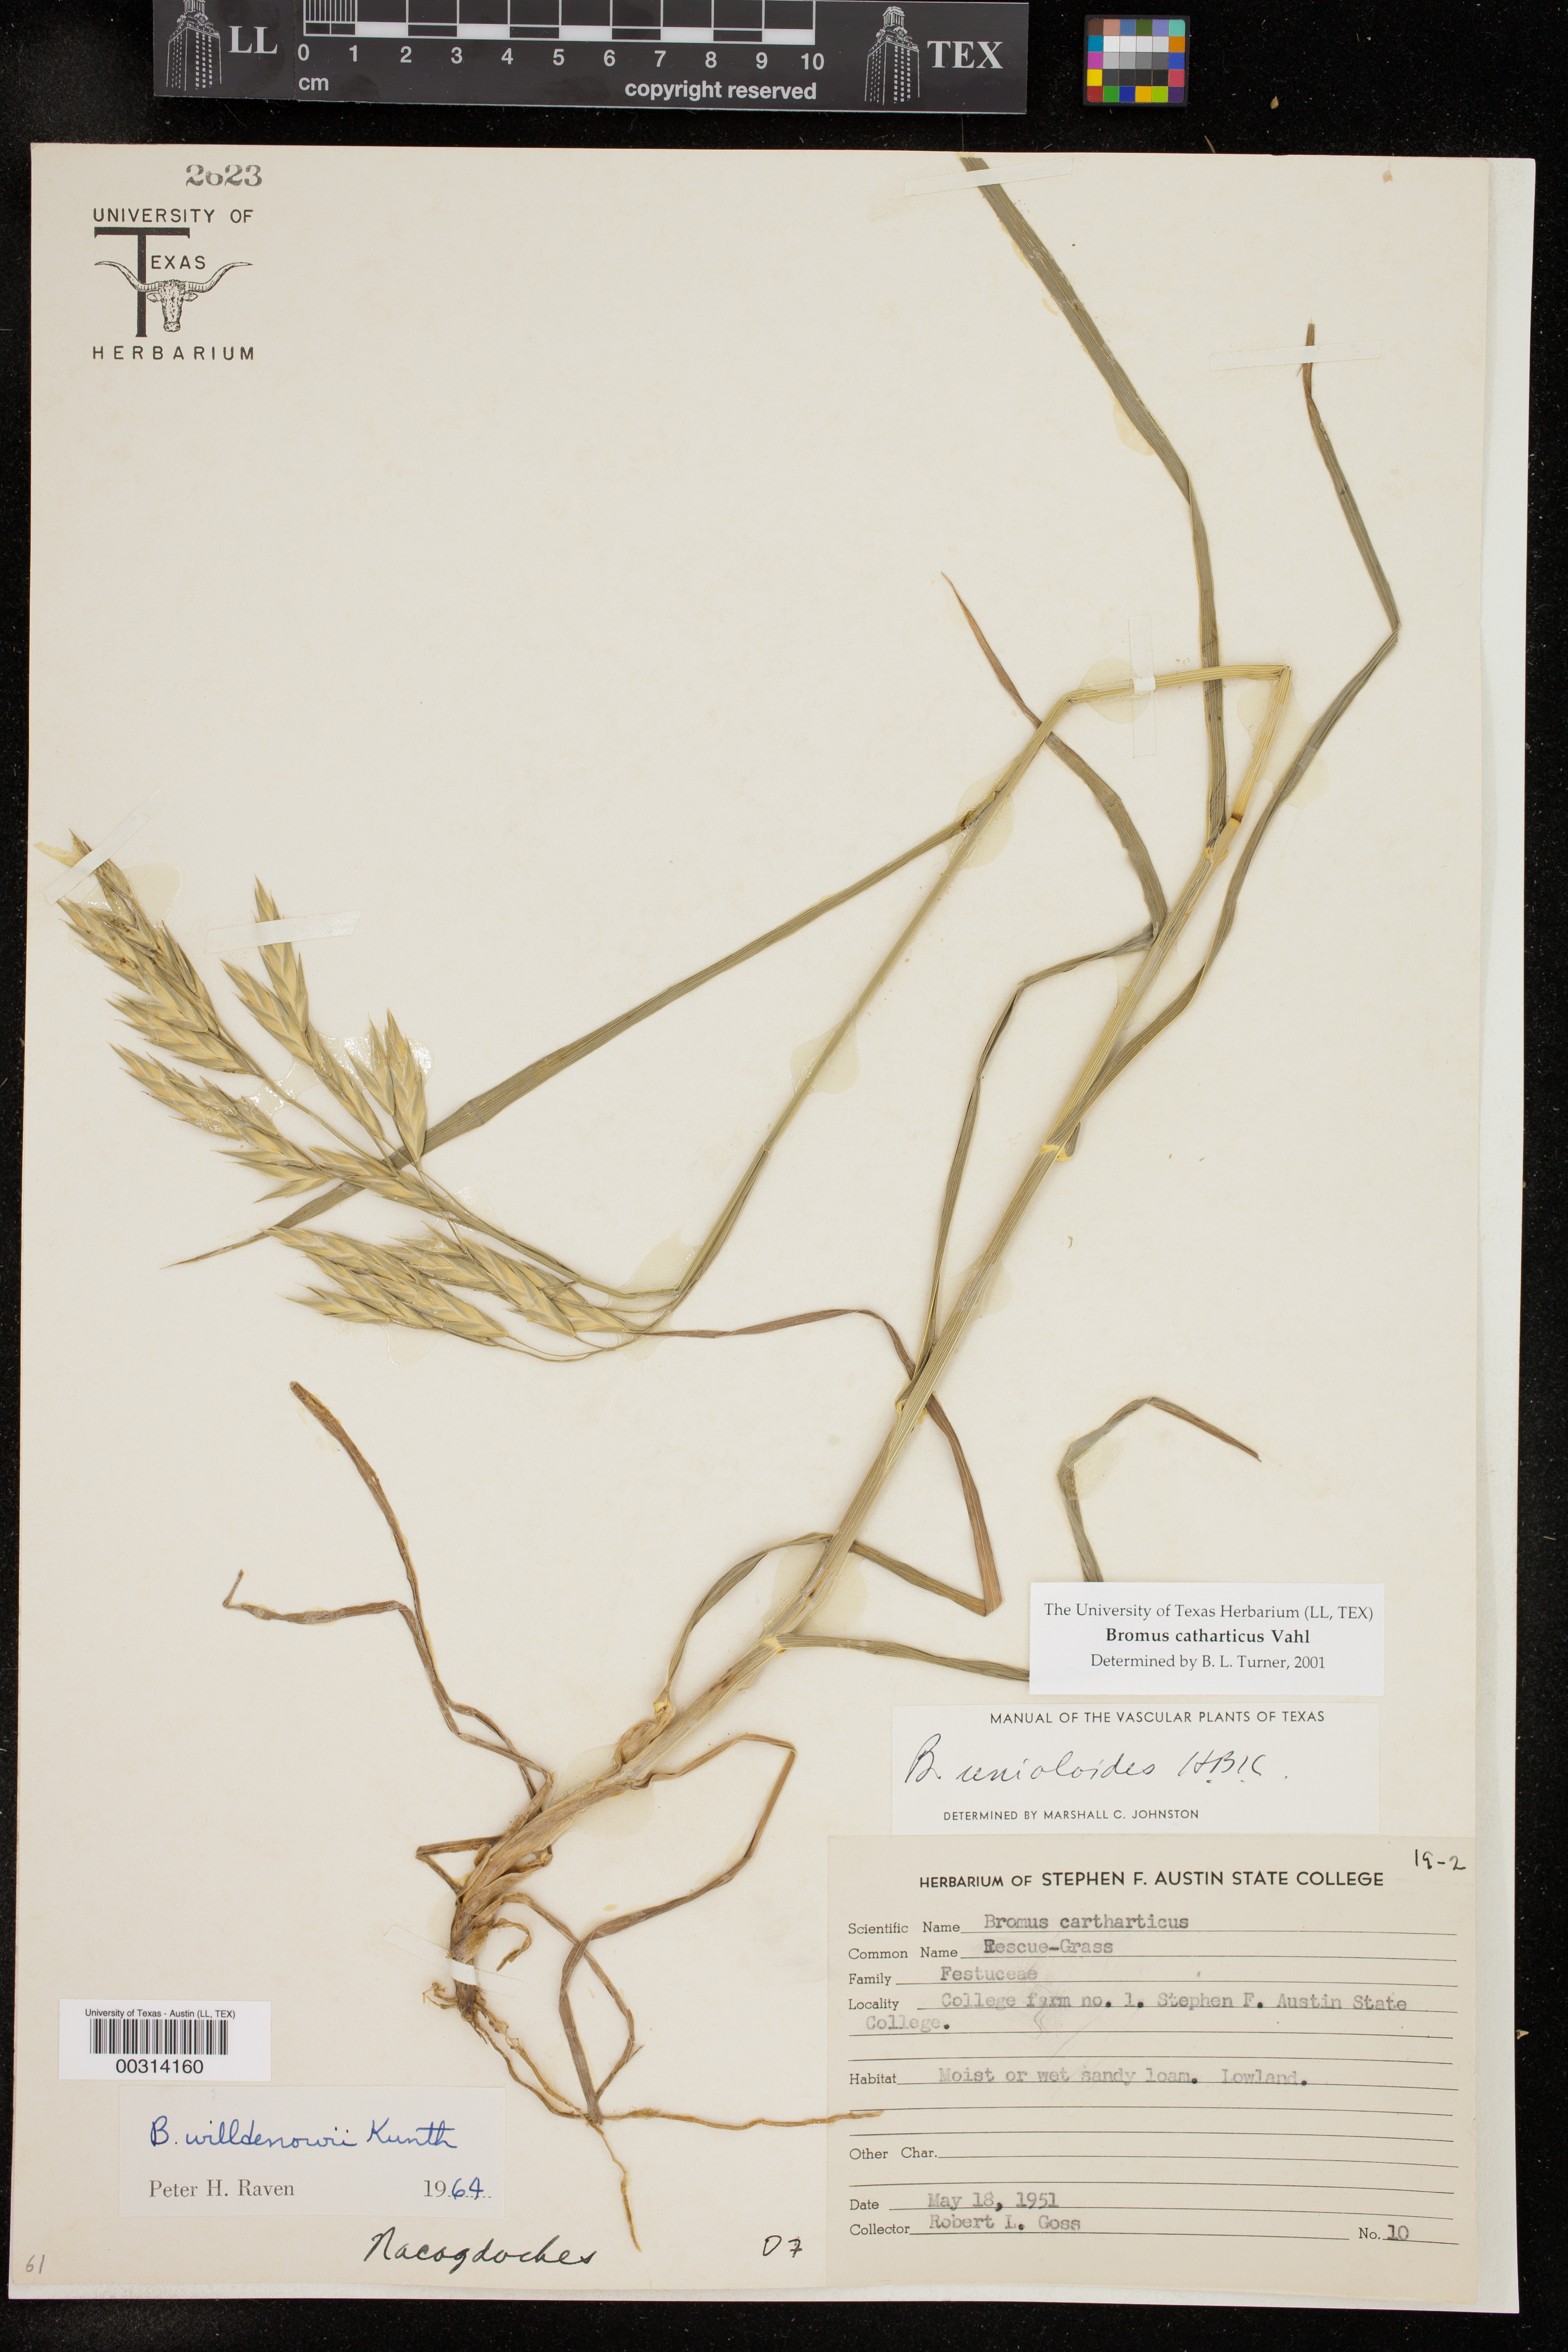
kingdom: Plantae
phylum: Tracheophyta
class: Liliopsida
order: Poales
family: Poaceae
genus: Bromus
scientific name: Bromus catharticus
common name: Rescuegrass
